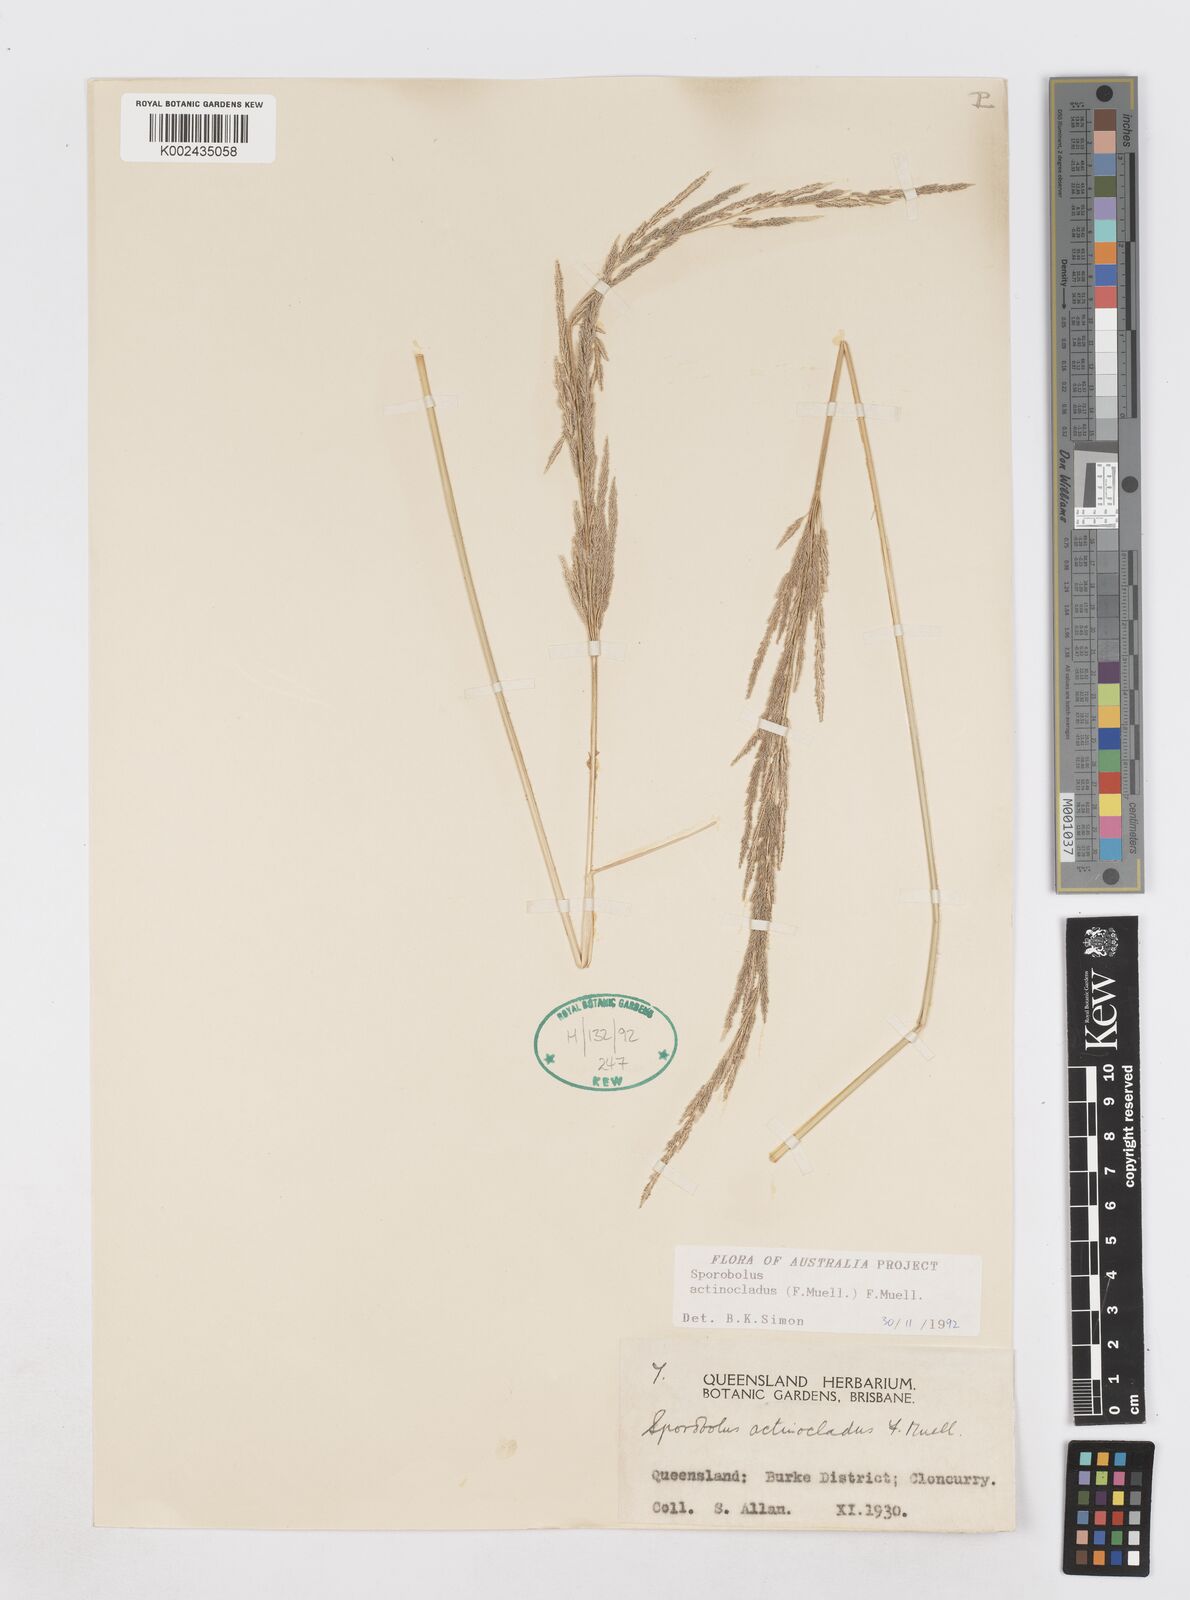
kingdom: Plantae
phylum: Tracheophyta
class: Liliopsida
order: Poales
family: Poaceae
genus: Sporobolus
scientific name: Sporobolus actinocladus
